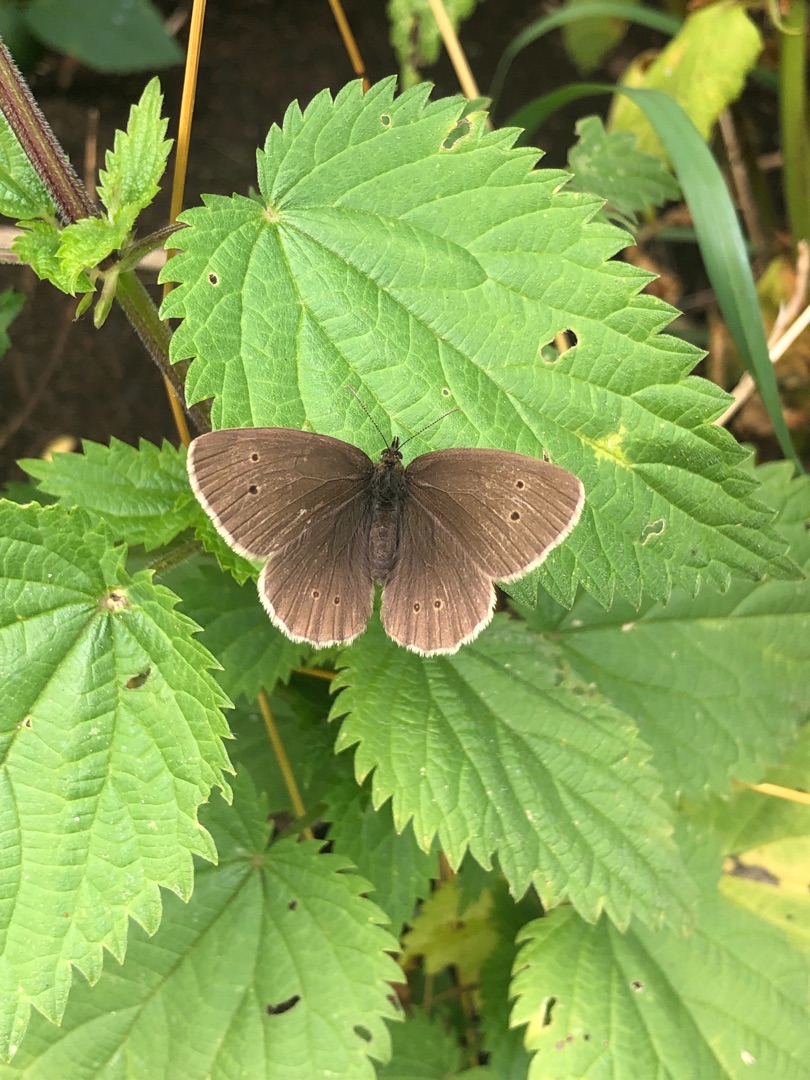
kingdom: Animalia
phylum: Arthropoda
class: Insecta
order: Lepidoptera
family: Nymphalidae
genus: Aphantopus
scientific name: Aphantopus hyperantus
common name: Engrandøje
